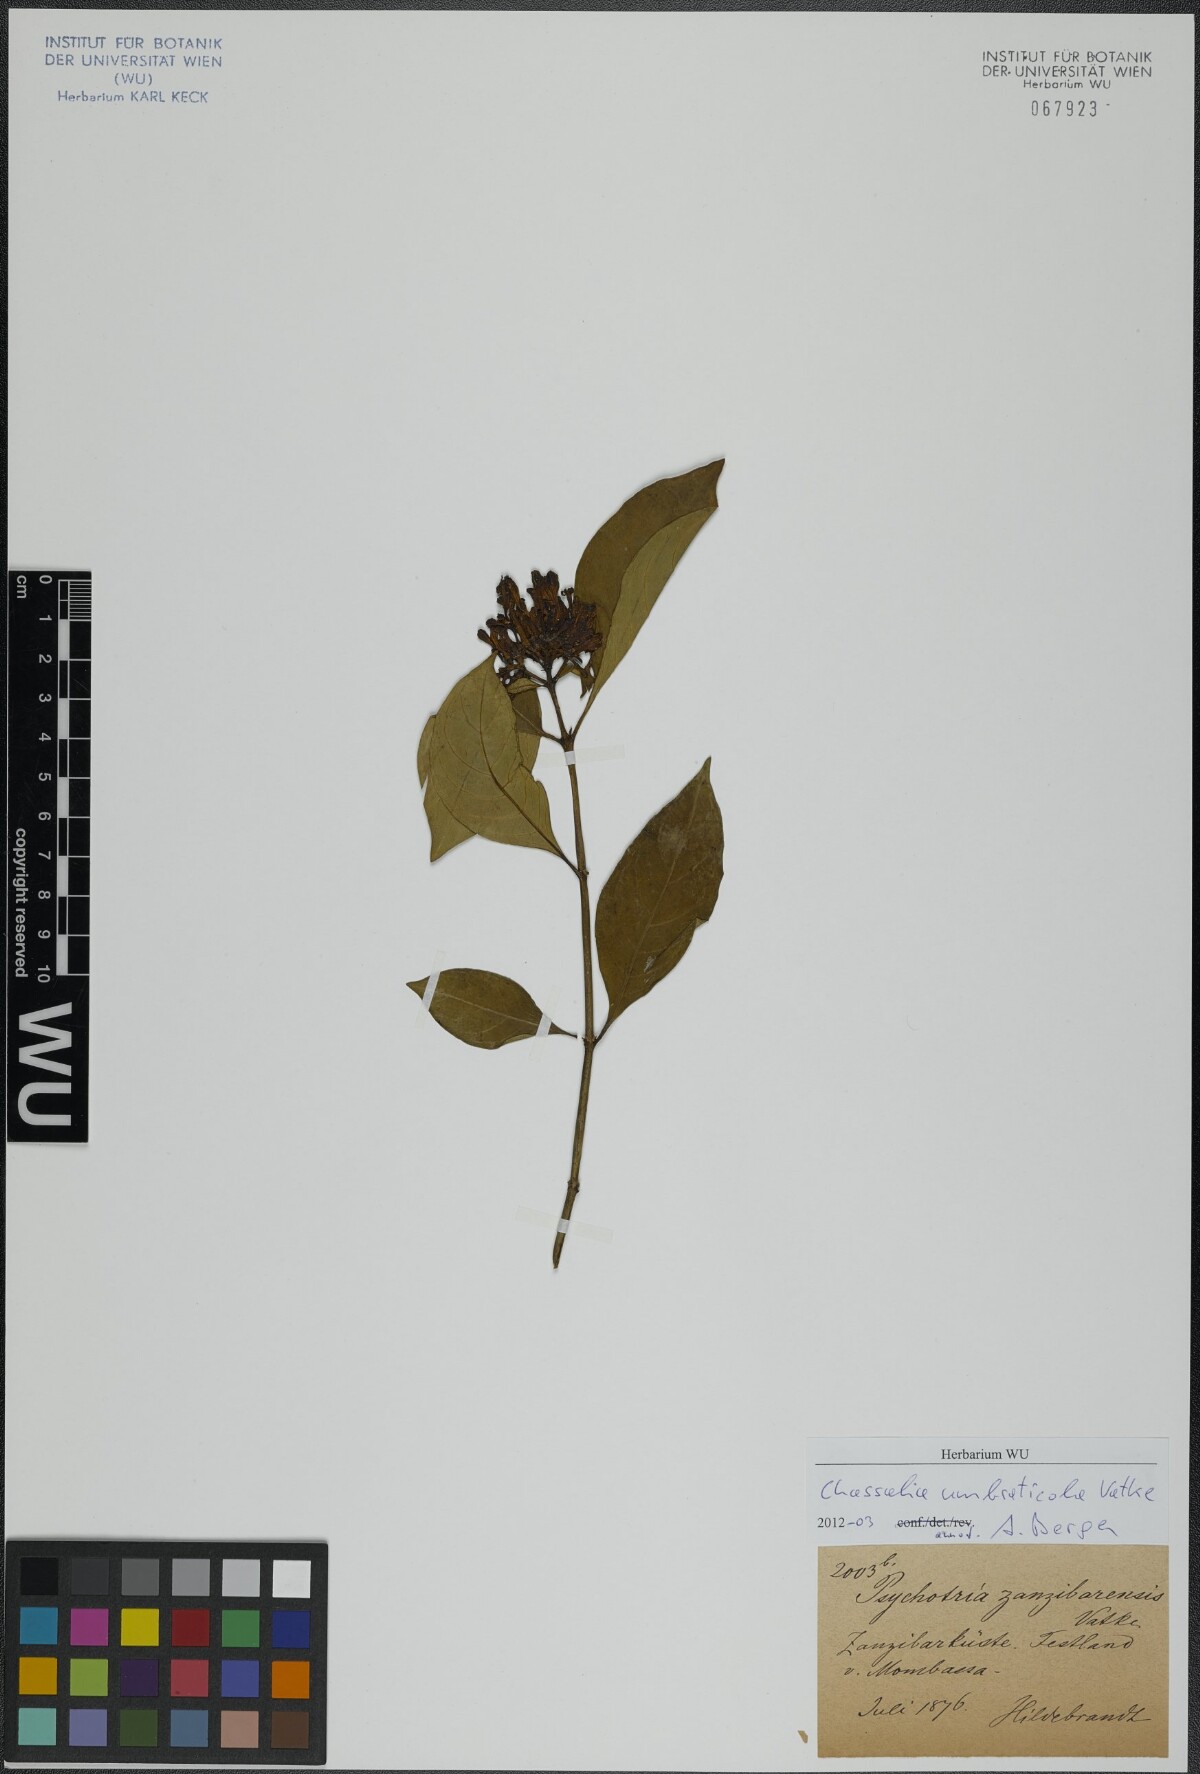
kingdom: Plantae
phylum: Tracheophyta
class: Magnoliopsida
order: Gentianales
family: Rubiaceae
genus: Chassalia
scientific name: Chassalia umbraticola
